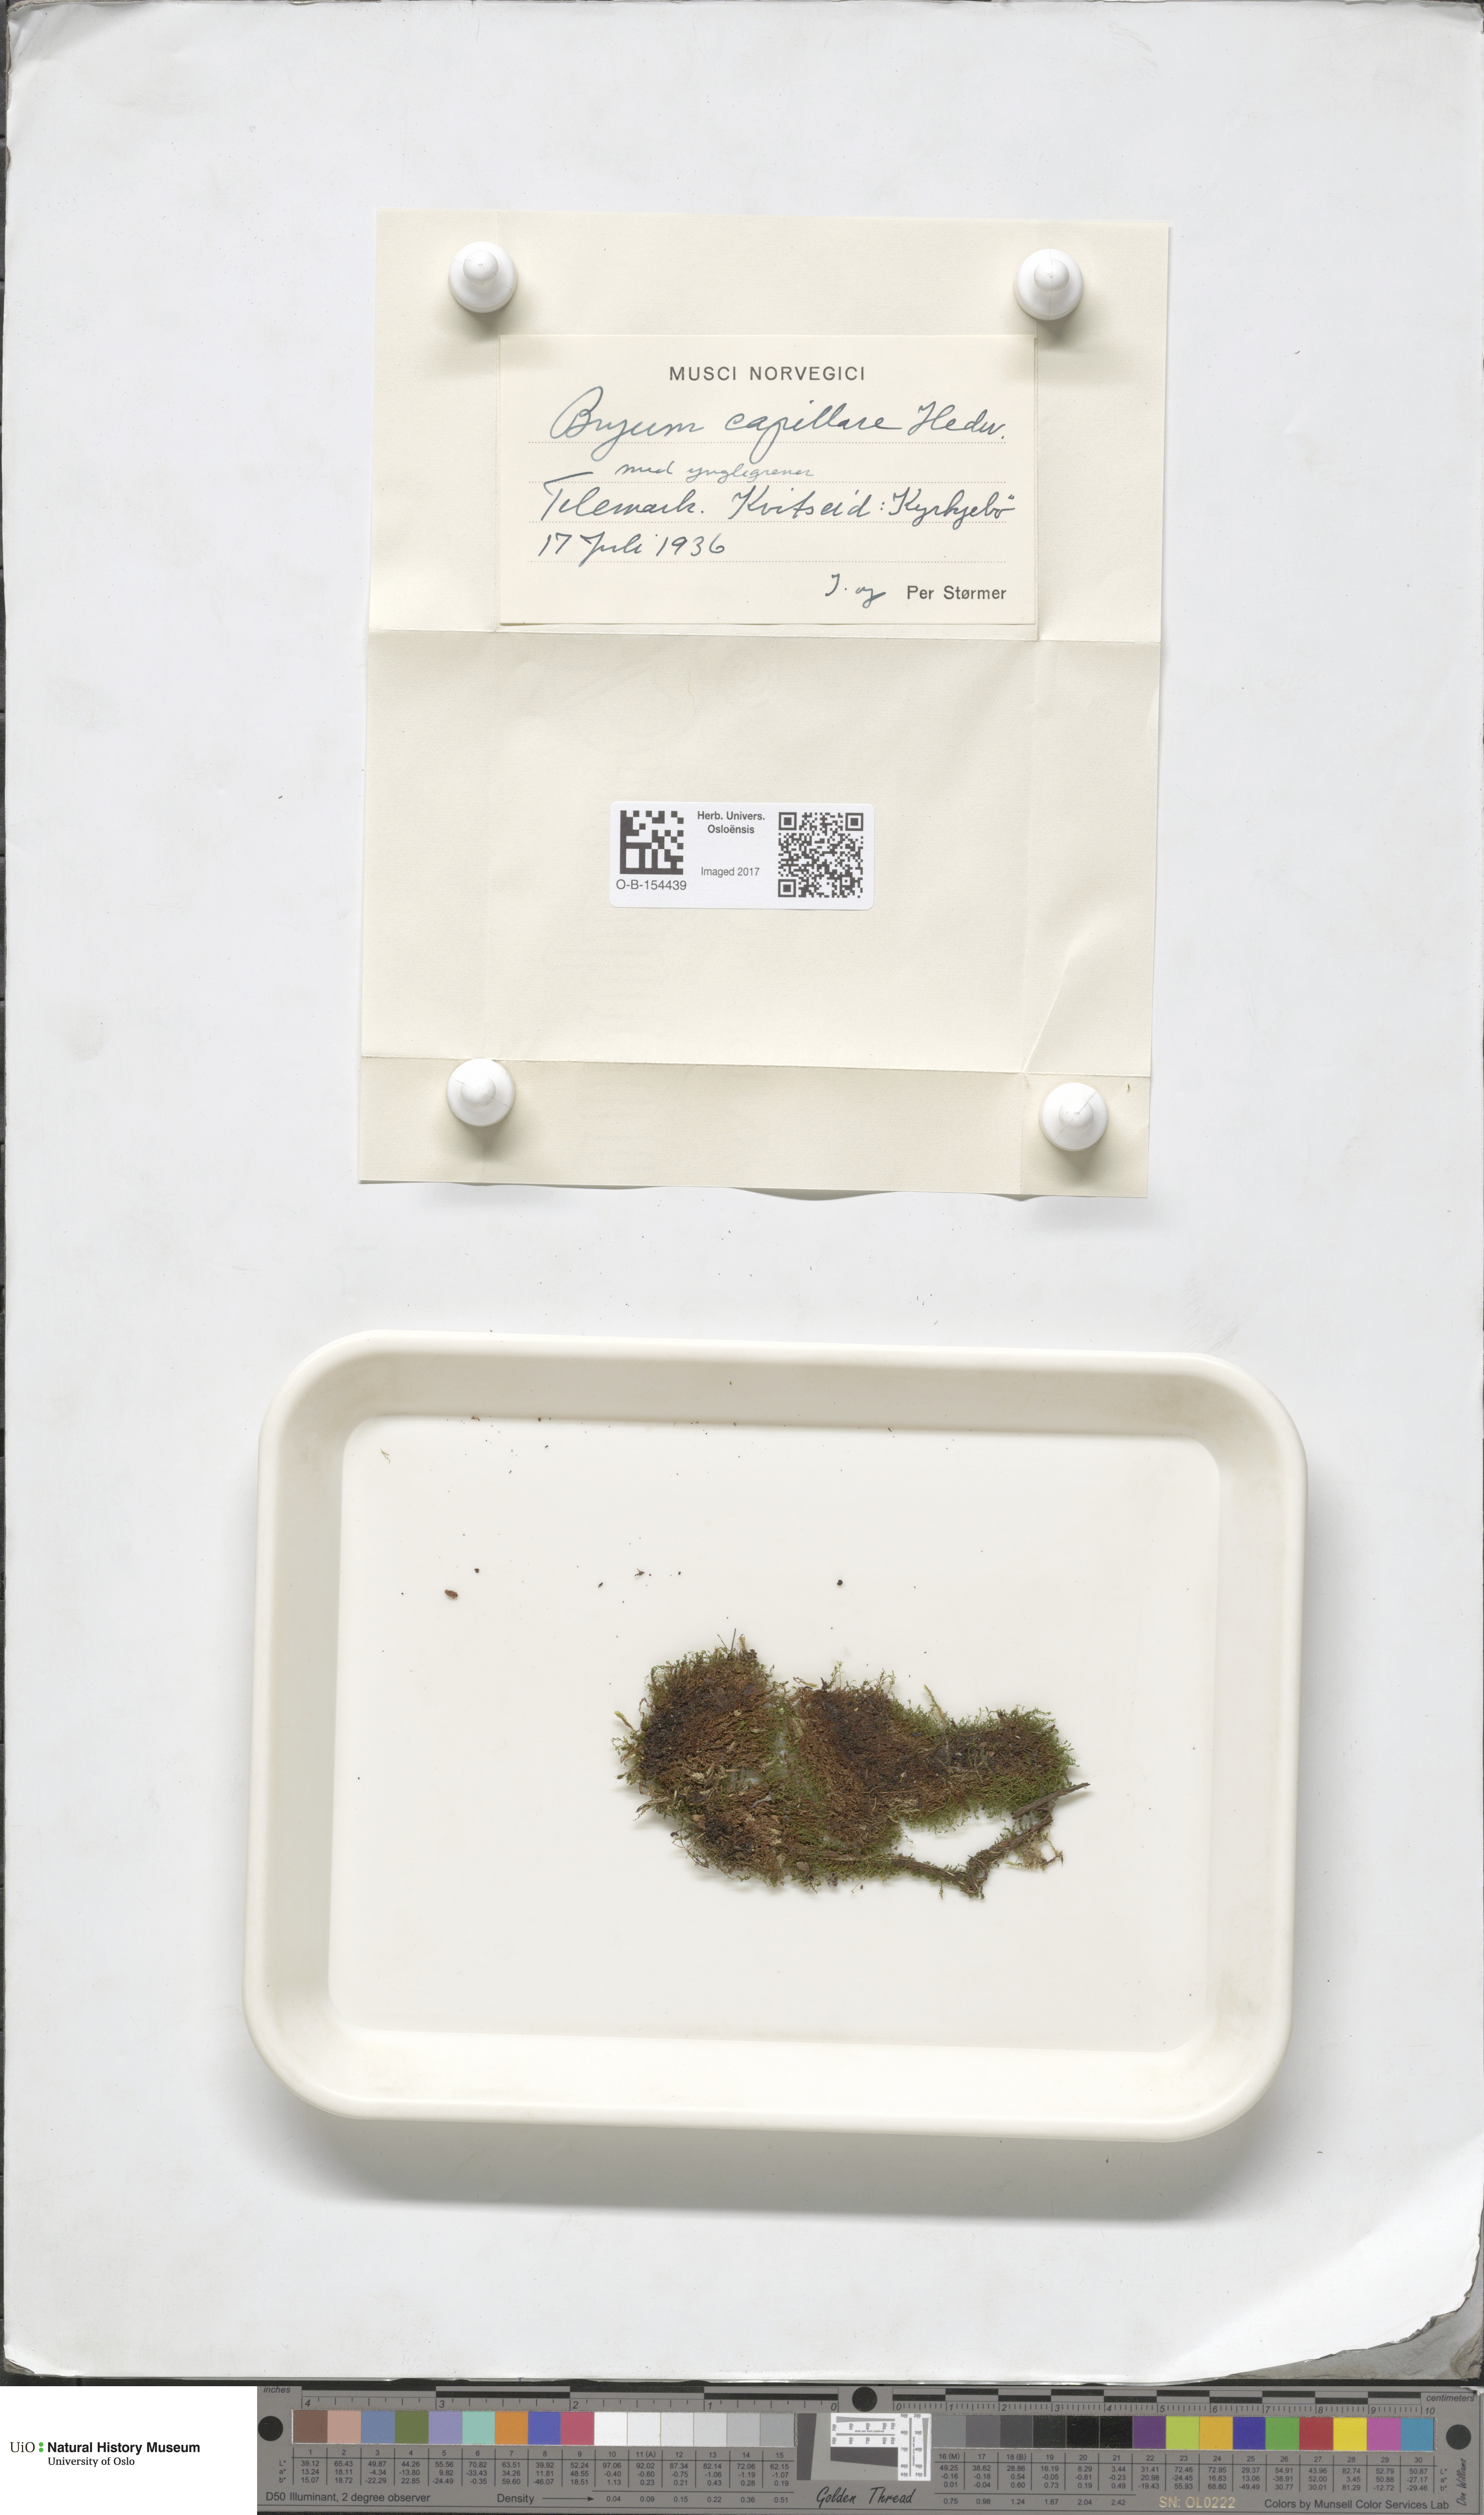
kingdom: Plantae
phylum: Bryophyta
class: Bryopsida
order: Bryales
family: Bryaceae
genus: Rosulabryum
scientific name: Rosulabryum capillare
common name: Capillary thread-moss
